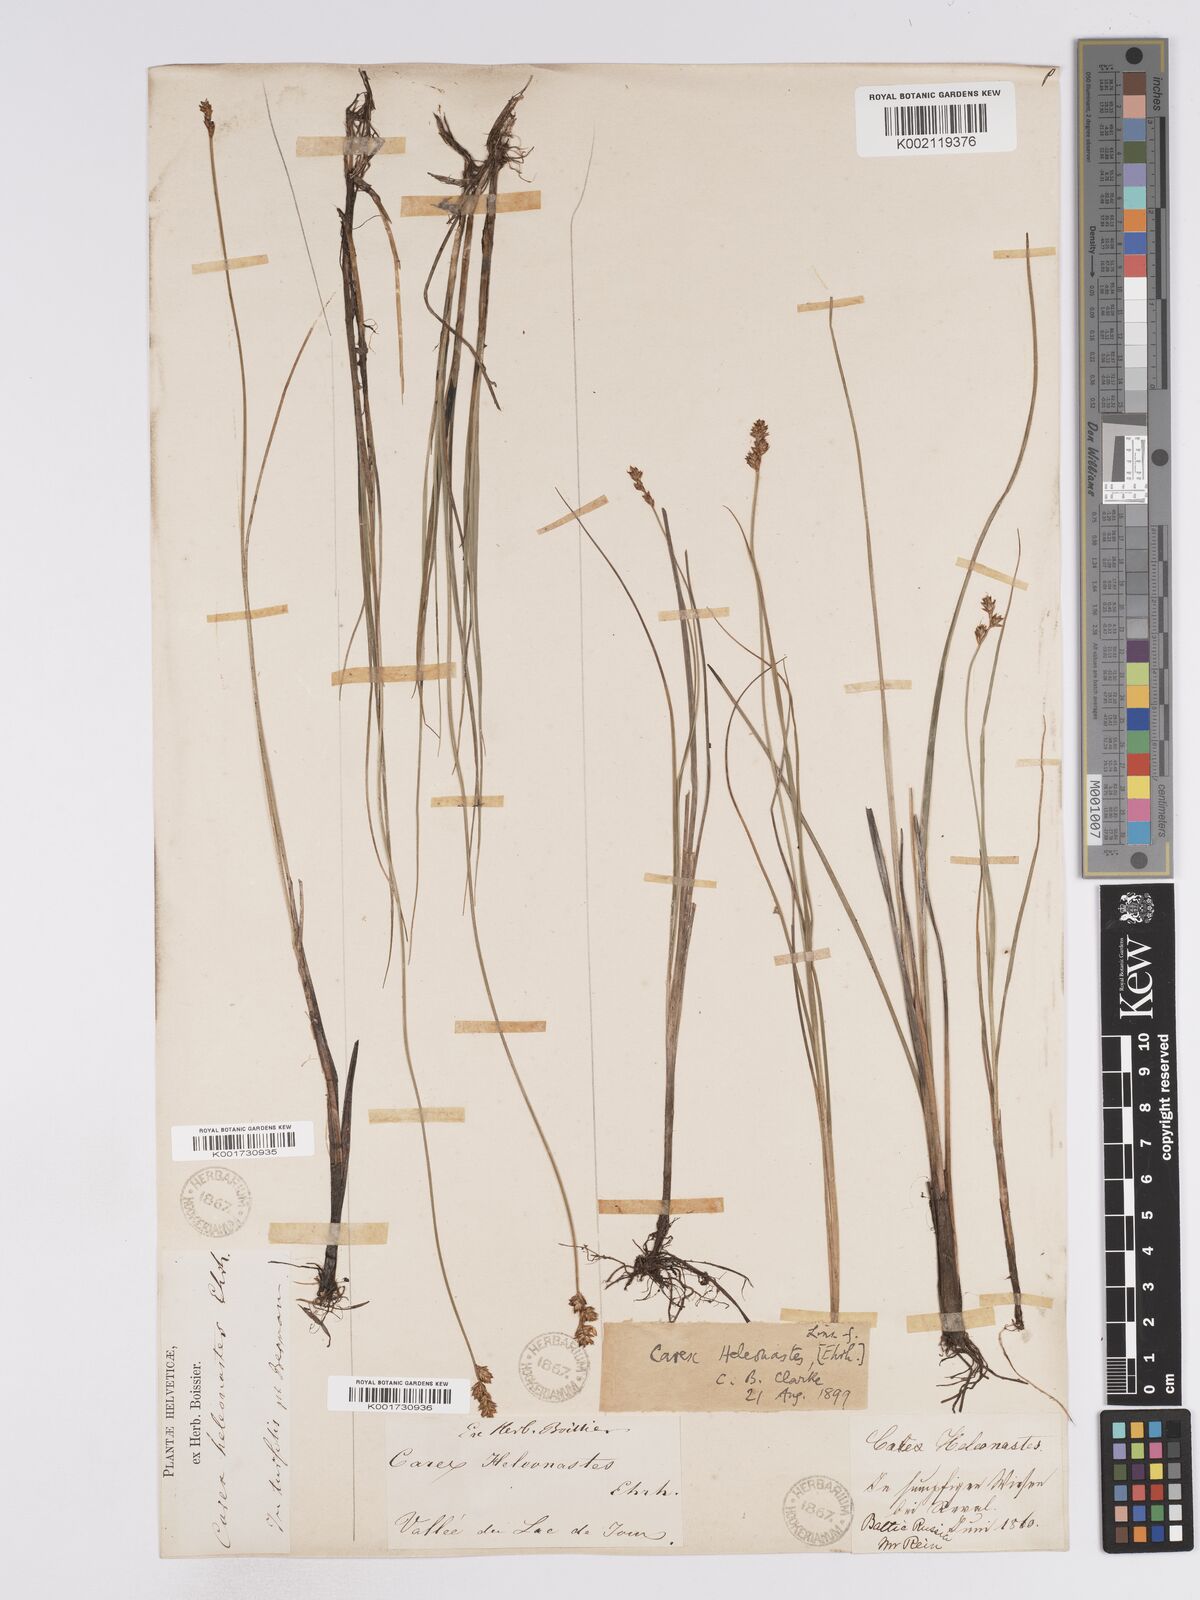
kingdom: Plantae
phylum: Tracheophyta
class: Liliopsida
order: Poales
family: Cyperaceae
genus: Carex
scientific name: Carex heleonastes
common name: Hudson bay sedge
